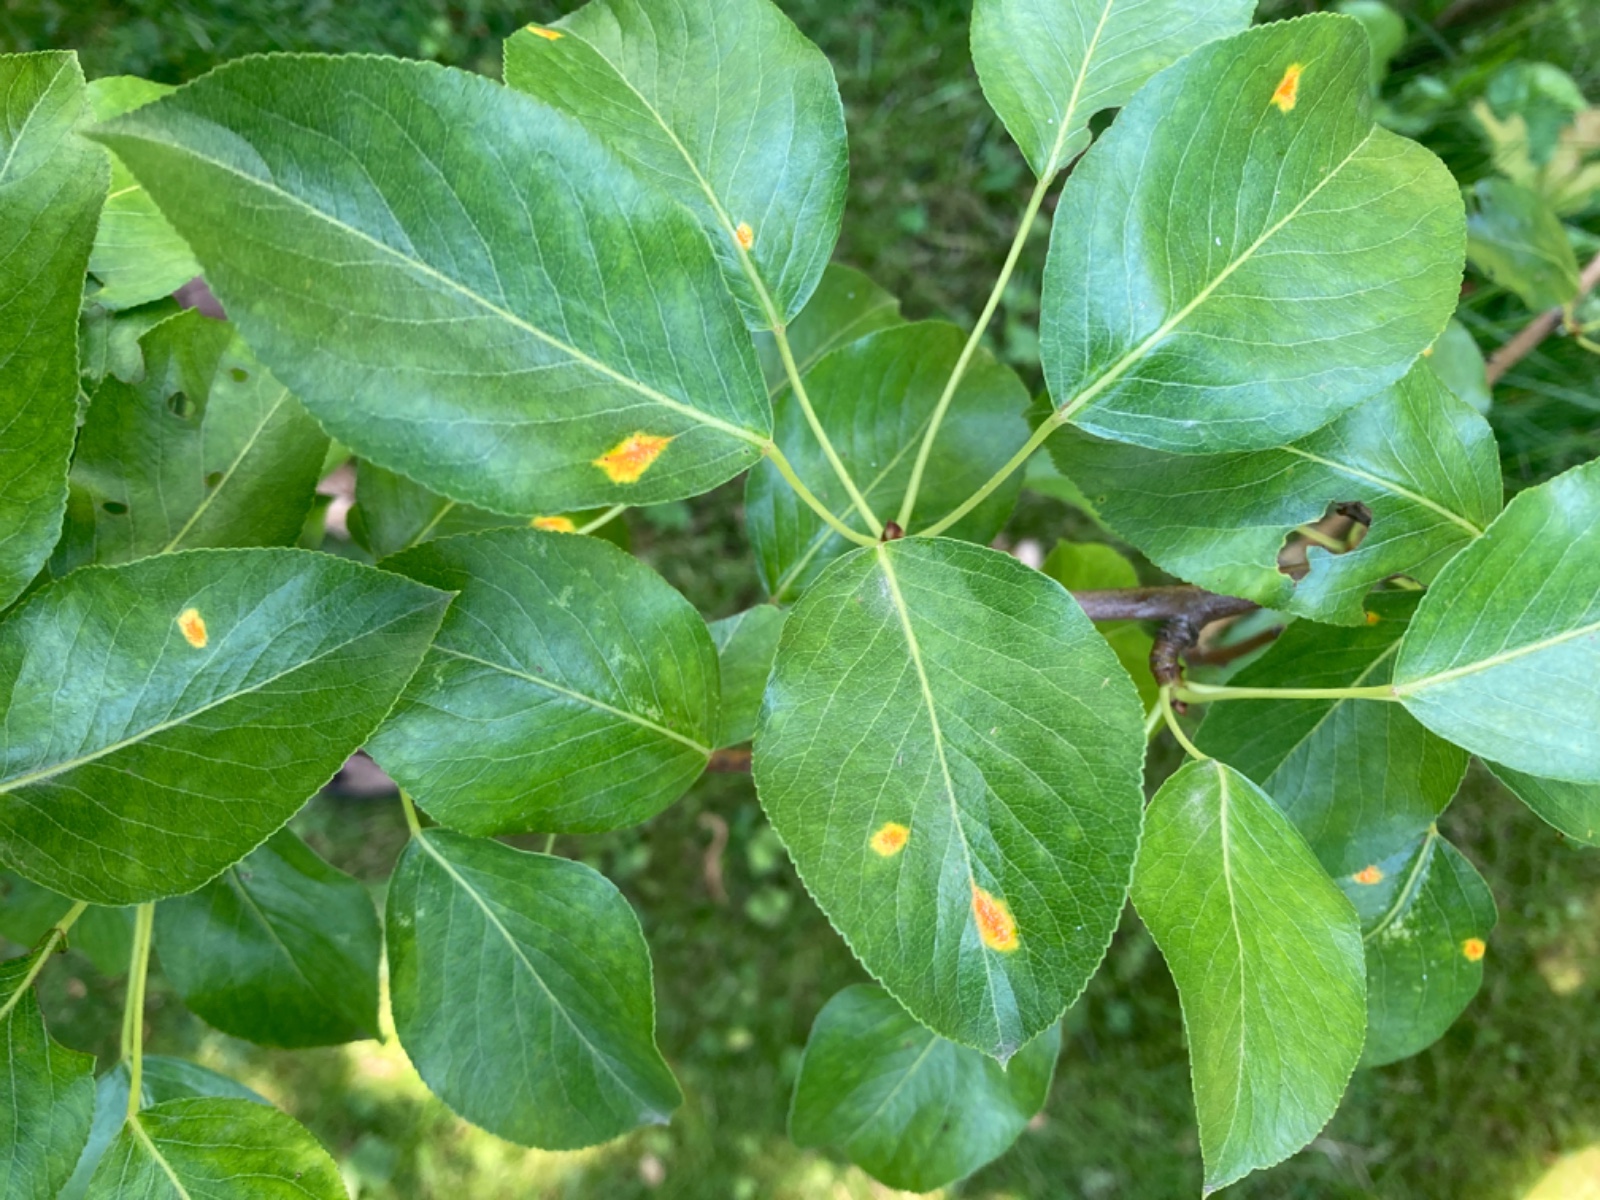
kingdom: Fungi
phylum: Basidiomycota
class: Pucciniomycetes
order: Pucciniales
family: Gymnosporangiaceae
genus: Gymnosporangium
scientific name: Gymnosporangium sabinae
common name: pæregitter-bævrerust
